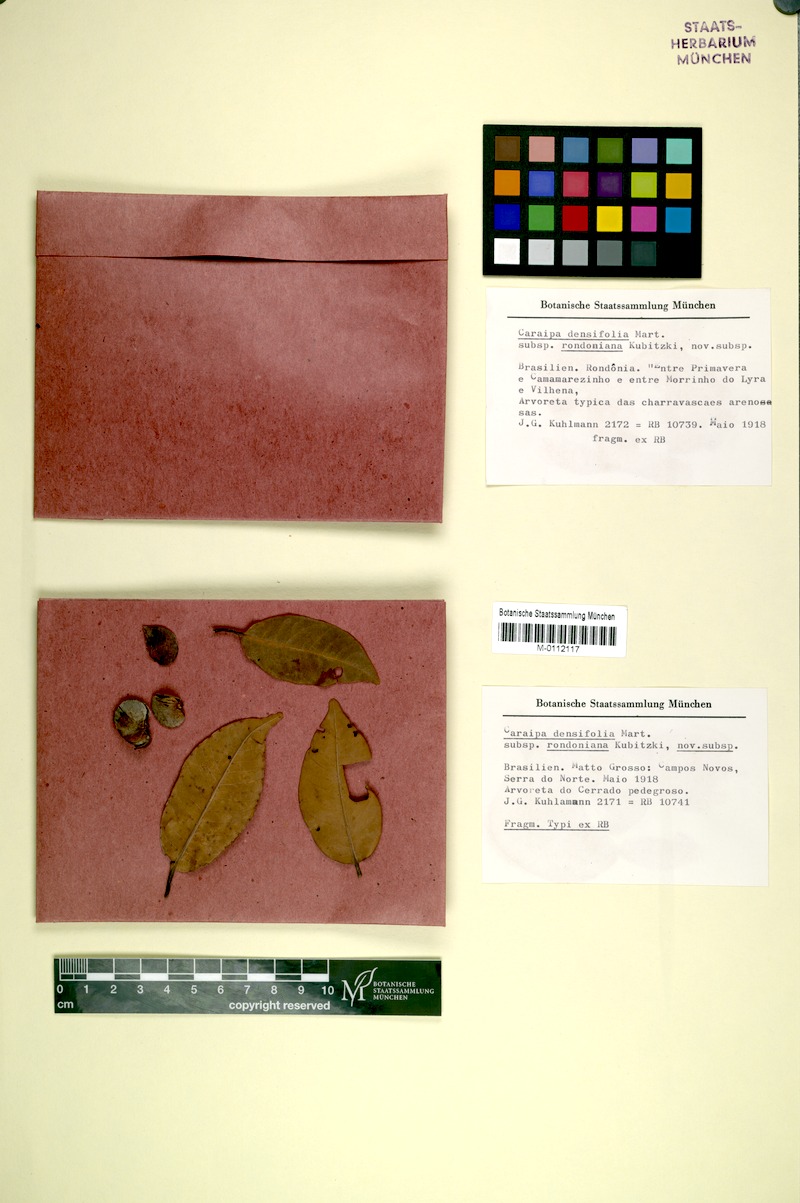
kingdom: Plantae
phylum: Tracheophyta
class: Magnoliopsida
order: Malpighiales
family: Calophyllaceae
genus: Caraipa
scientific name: Caraipa densifolia
